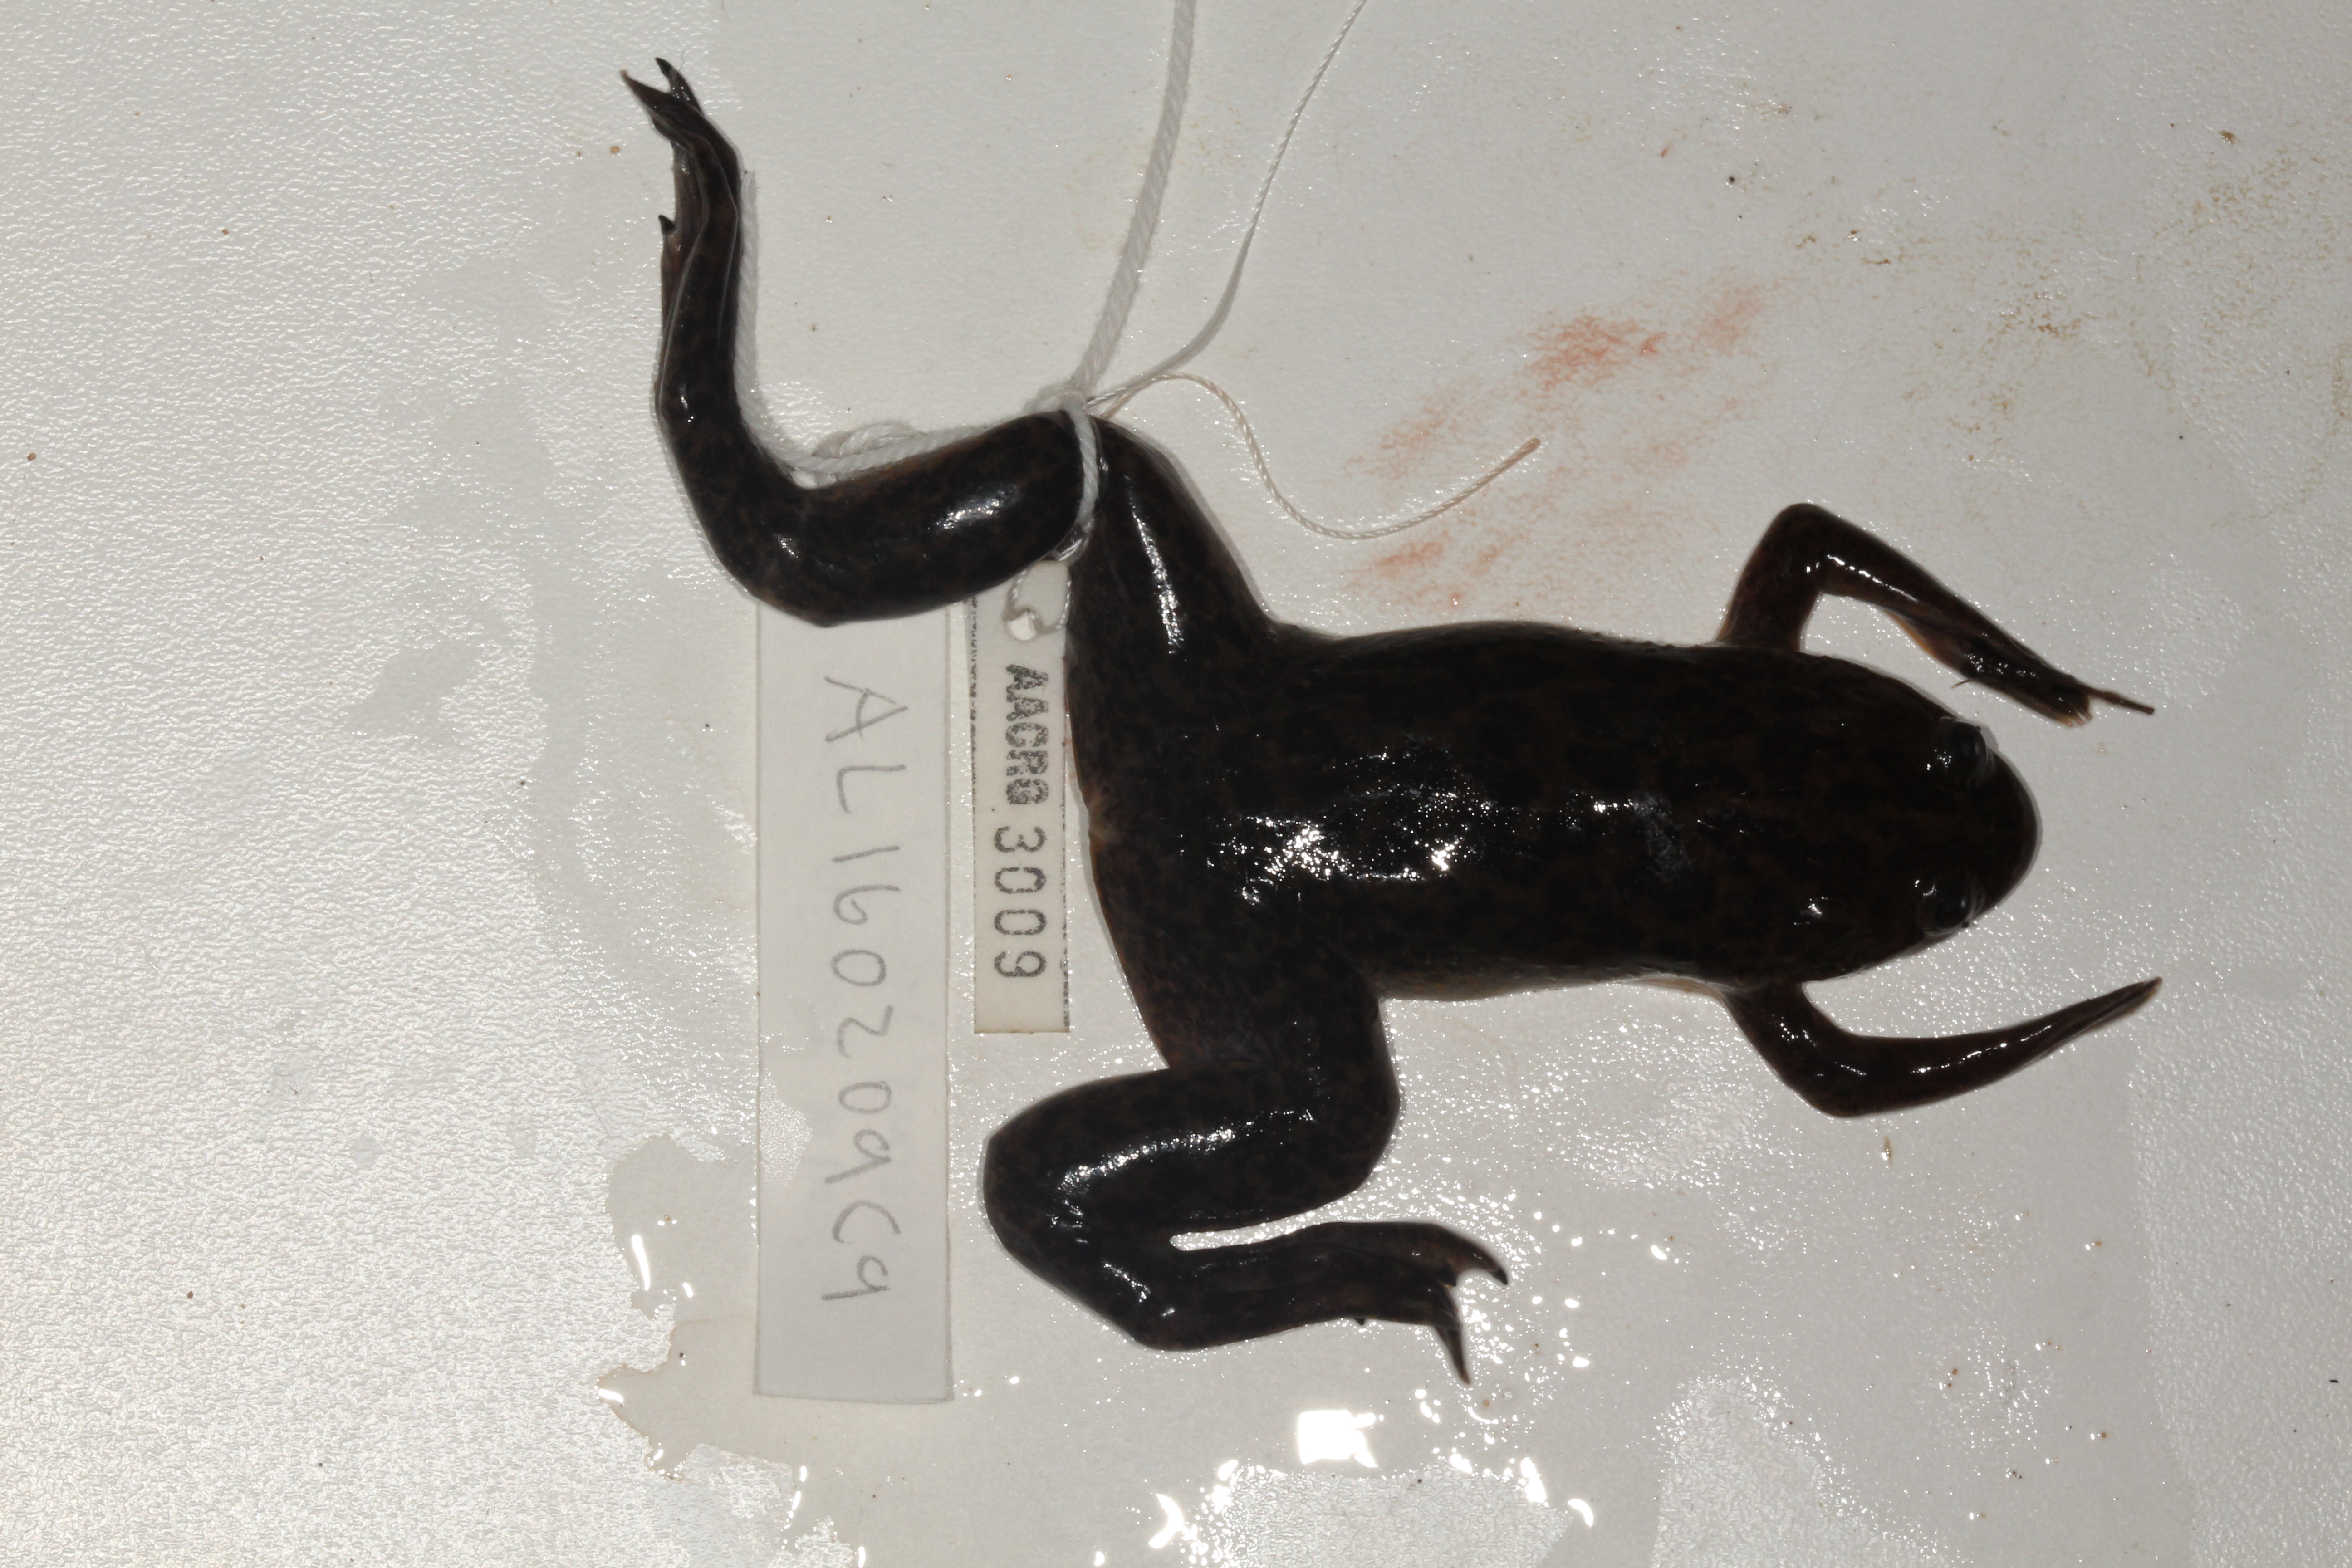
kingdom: Animalia
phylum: Chordata
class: Amphibia
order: Anura
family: Pipidae
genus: Xenopus
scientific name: Xenopus laevis
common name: African clawed frog
